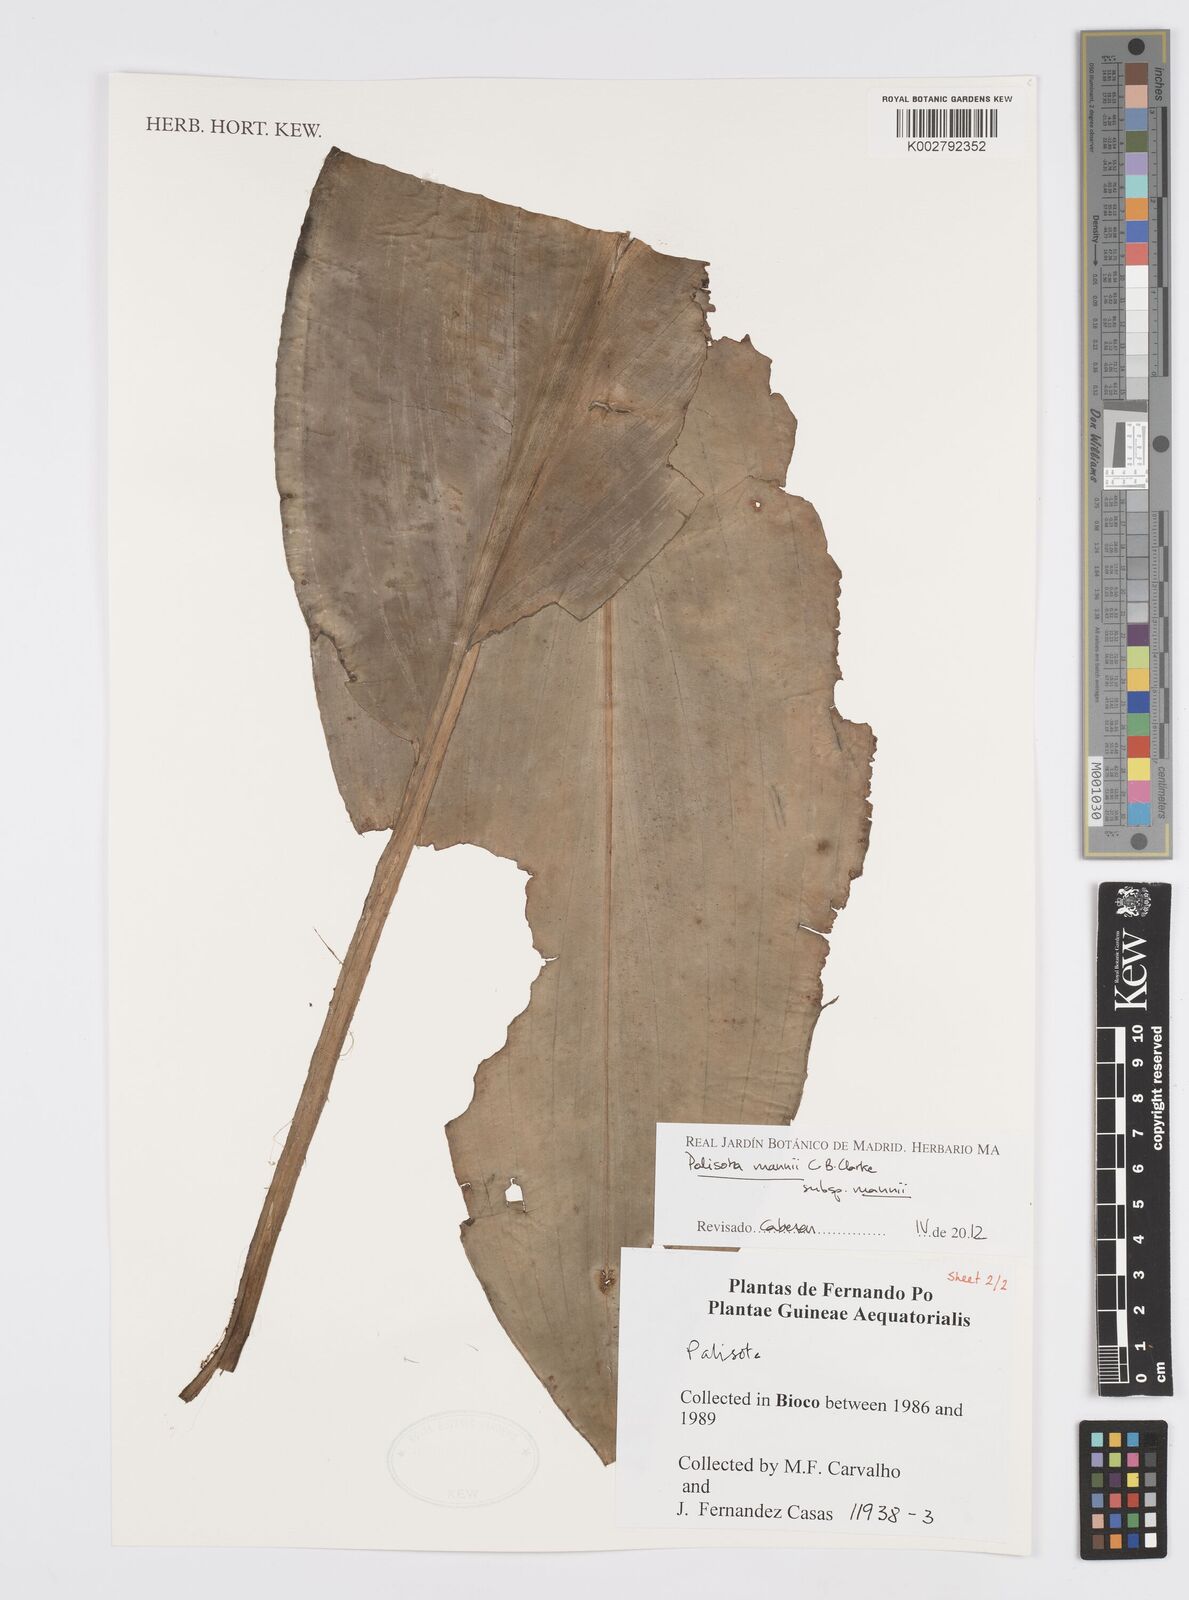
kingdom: Plantae
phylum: Tracheophyta
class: Liliopsida
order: Commelinales
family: Commelinaceae
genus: Palisota
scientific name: Palisota mannii
